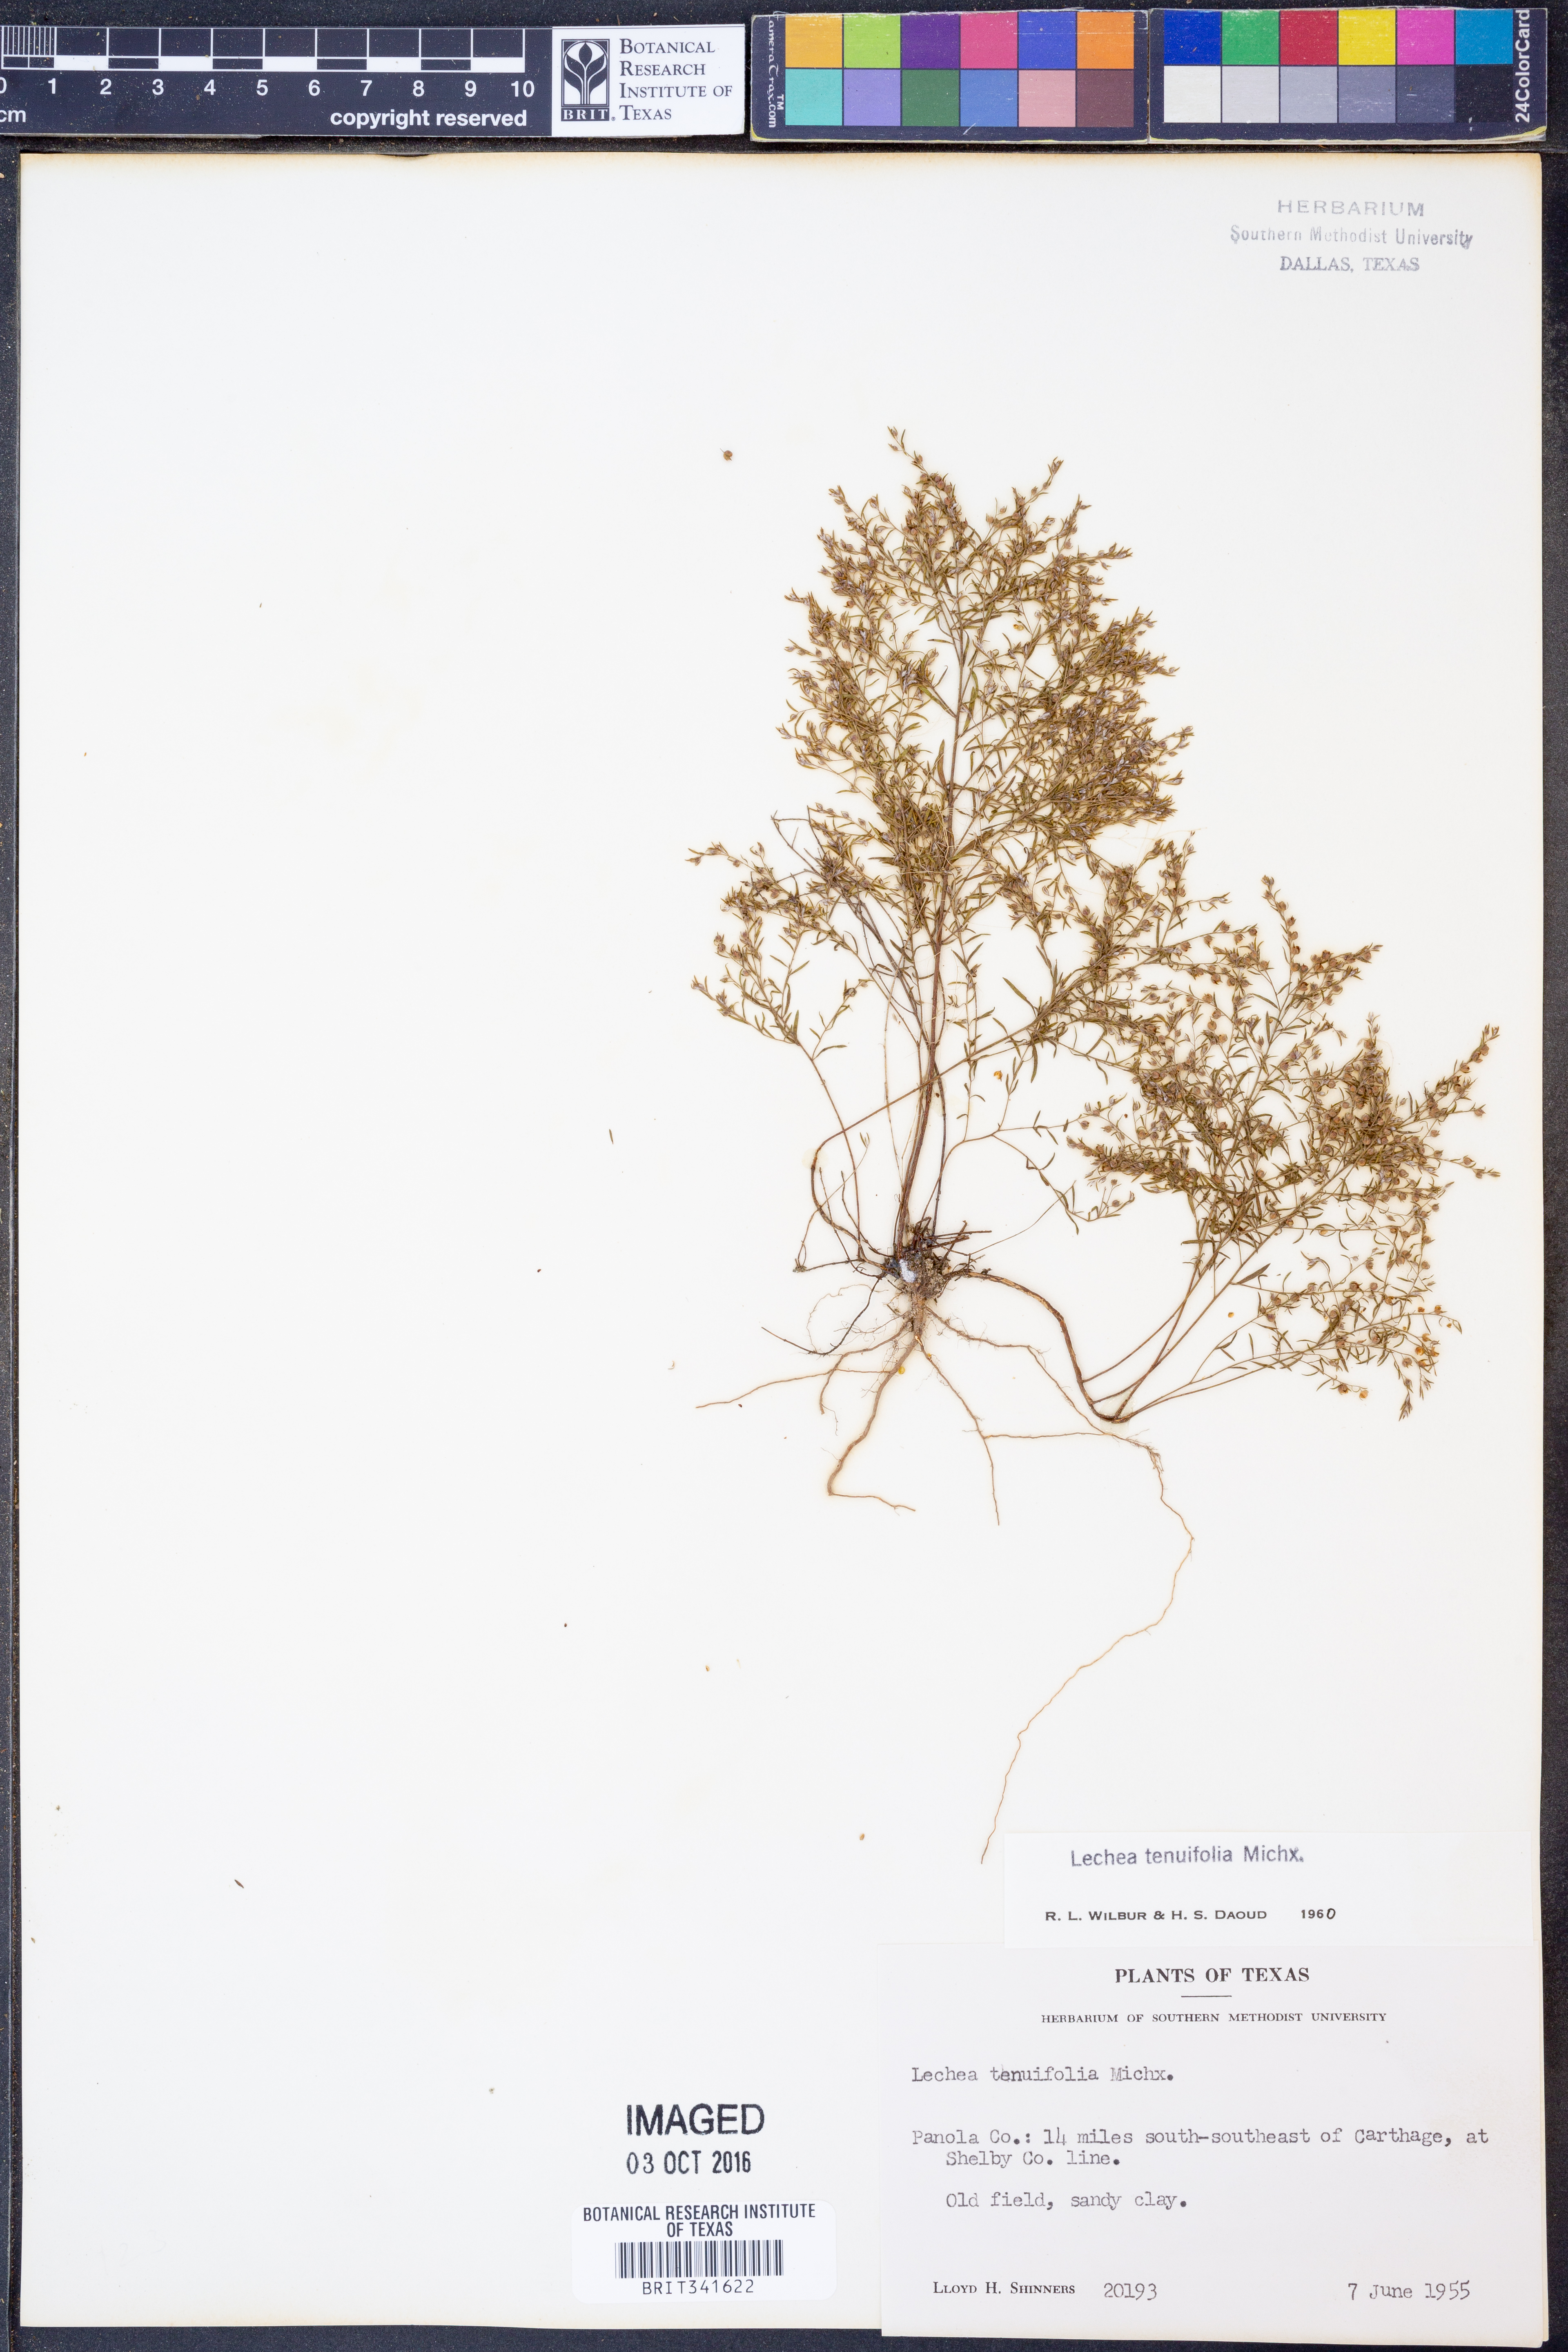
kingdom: Plantae
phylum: Tracheophyta
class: Magnoliopsida
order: Malvales
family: Cistaceae
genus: Lechea
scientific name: Lechea tenuifolia
